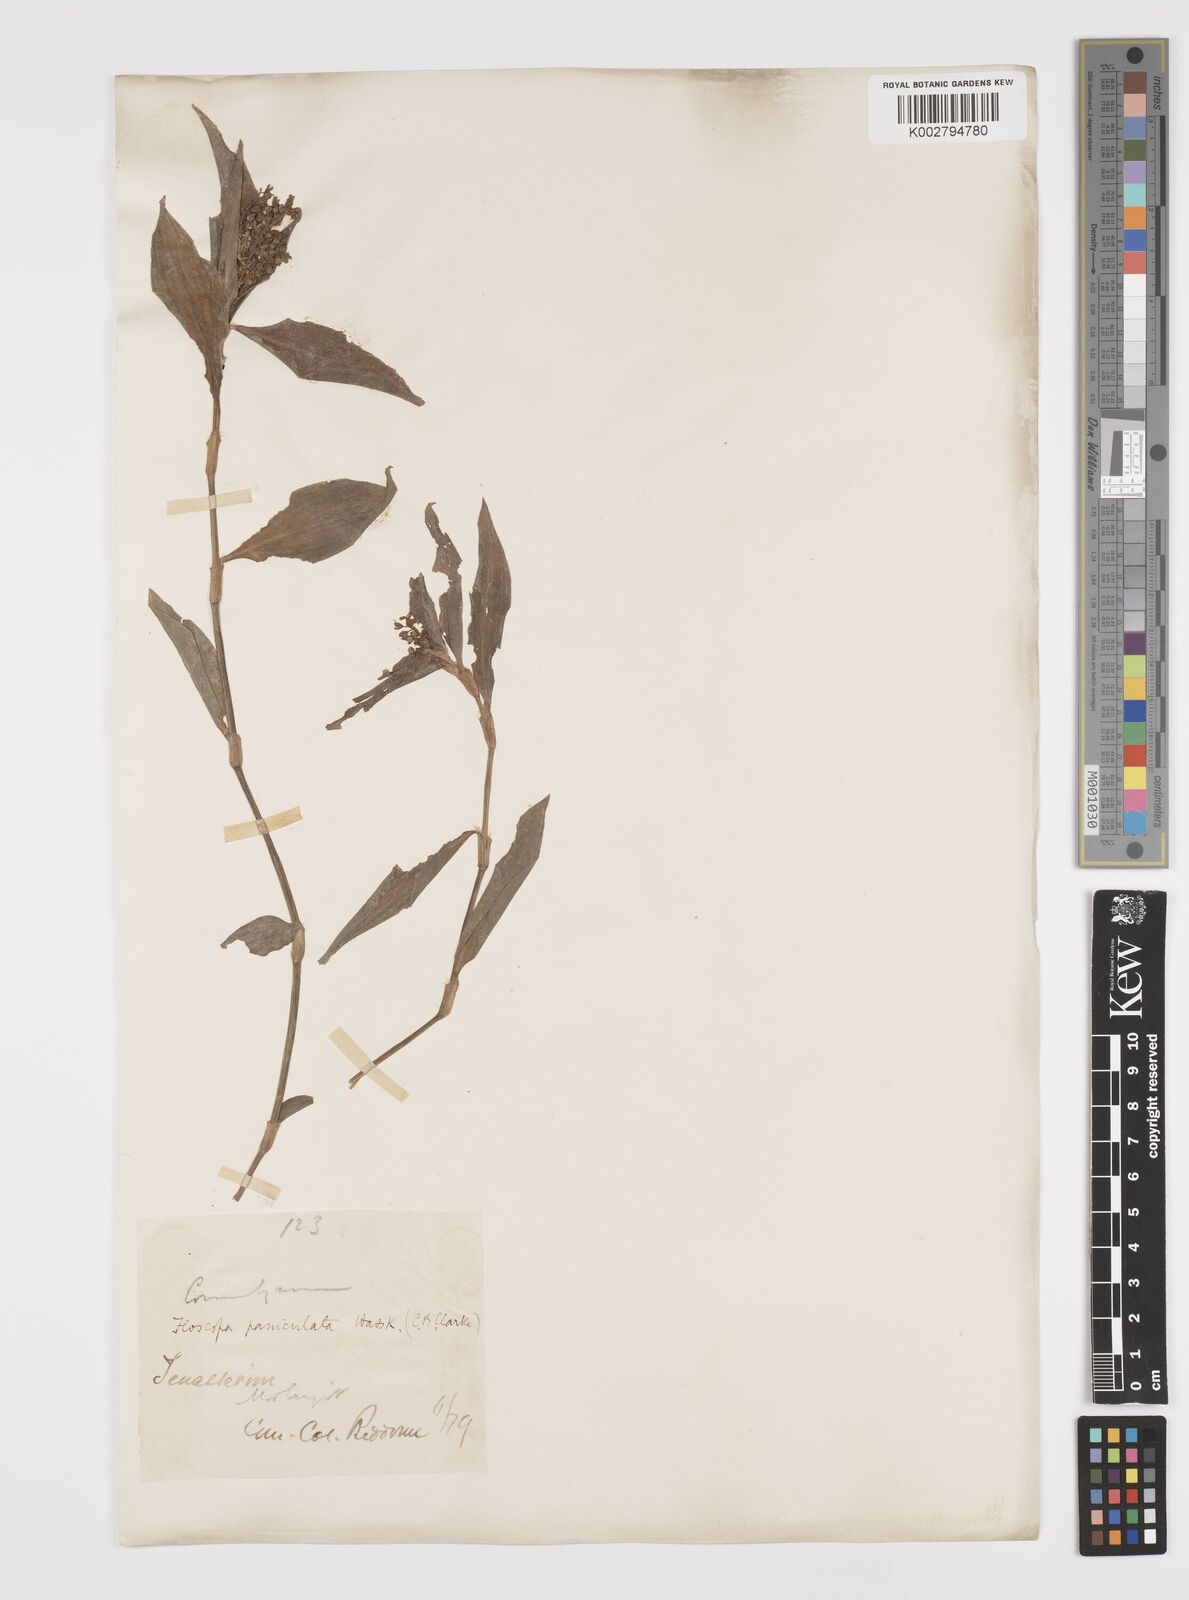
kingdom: Plantae
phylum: Tracheophyta
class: Liliopsida
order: Commelinales
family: Commelinaceae
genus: Floscopa
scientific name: Floscopa scandens
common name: Climbing flower cup
